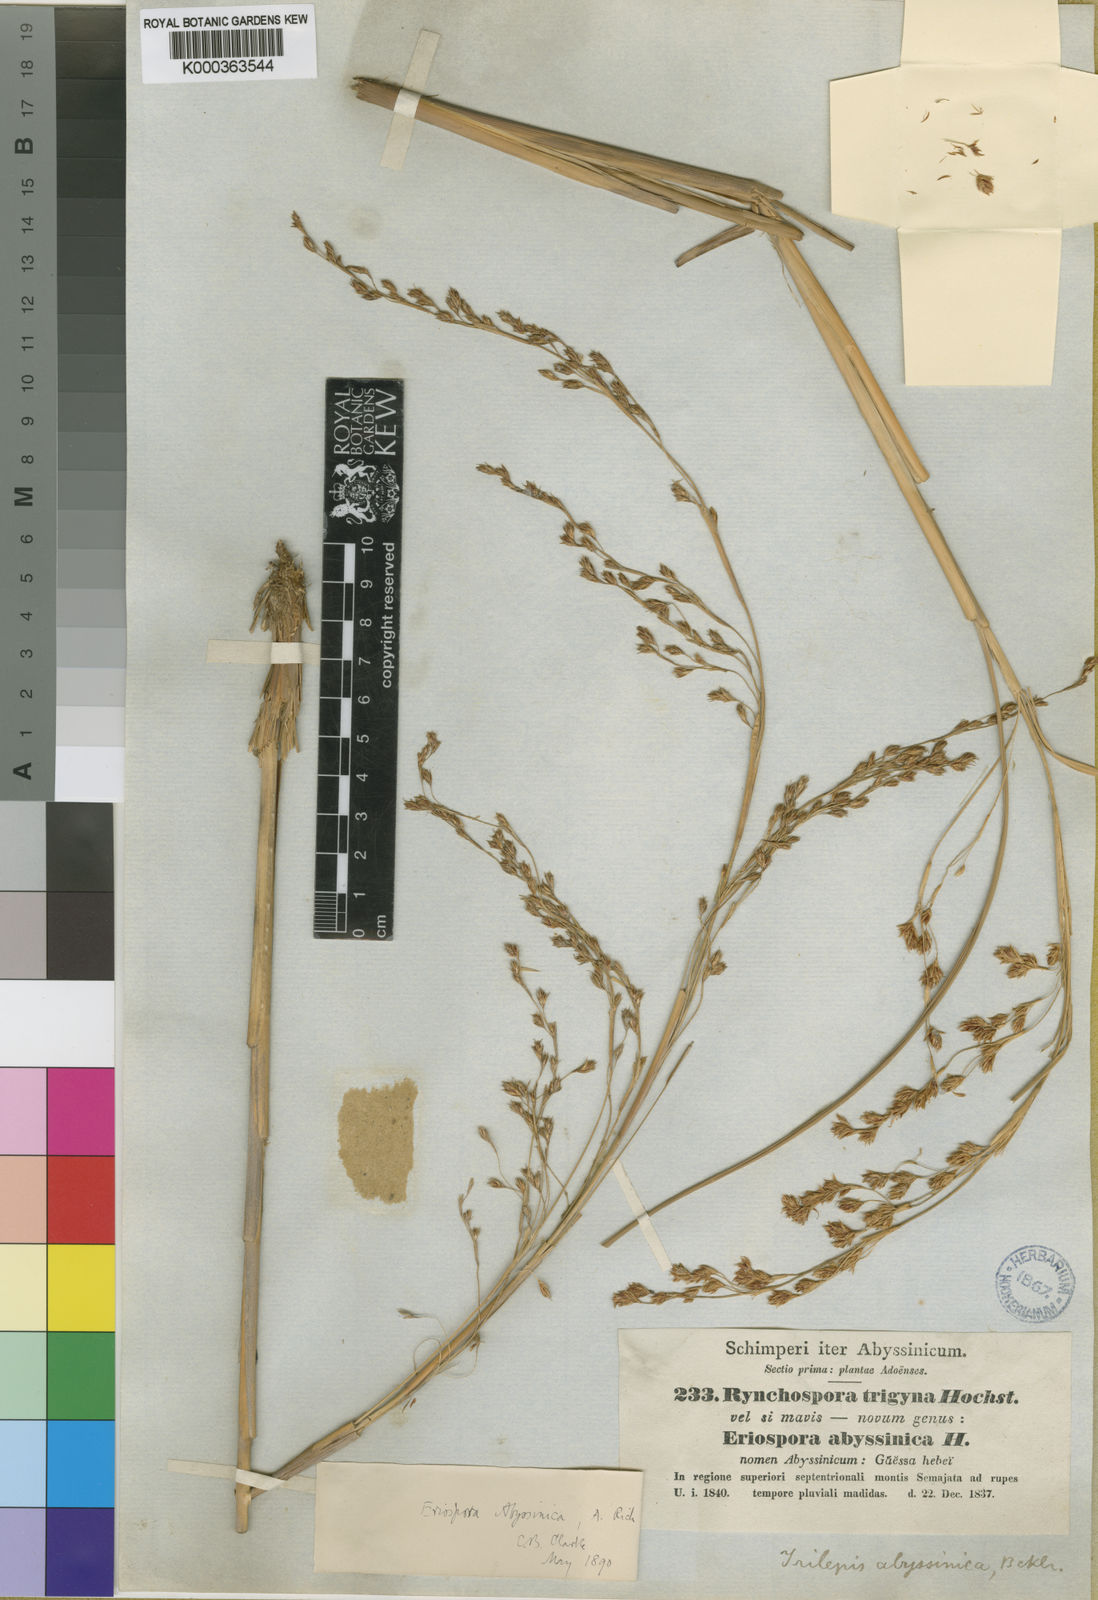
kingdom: Plantae
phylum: Tracheophyta
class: Liliopsida
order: Poales
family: Cyperaceae
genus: Coleochloa
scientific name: Coleochloa abyssinica
